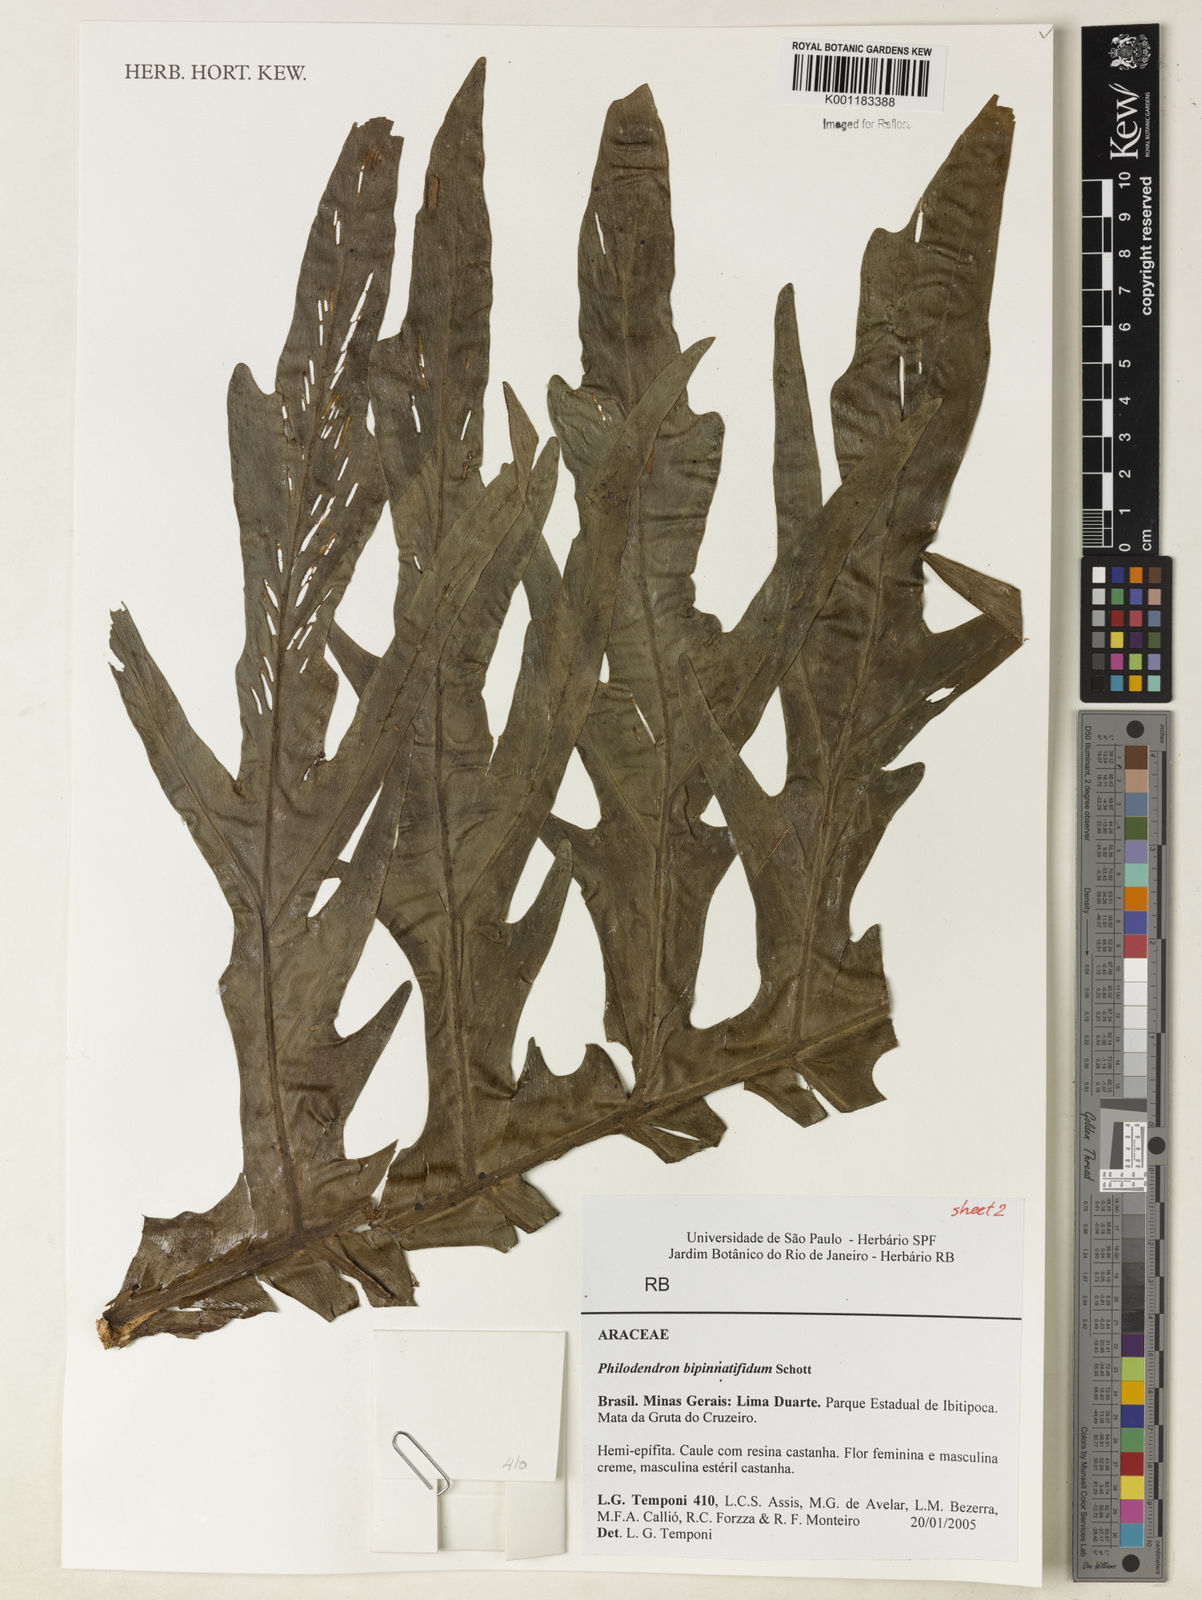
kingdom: Plantae
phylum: Tracheophyta
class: Liliopsida
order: Alismatales
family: Araceae
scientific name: Araceae
